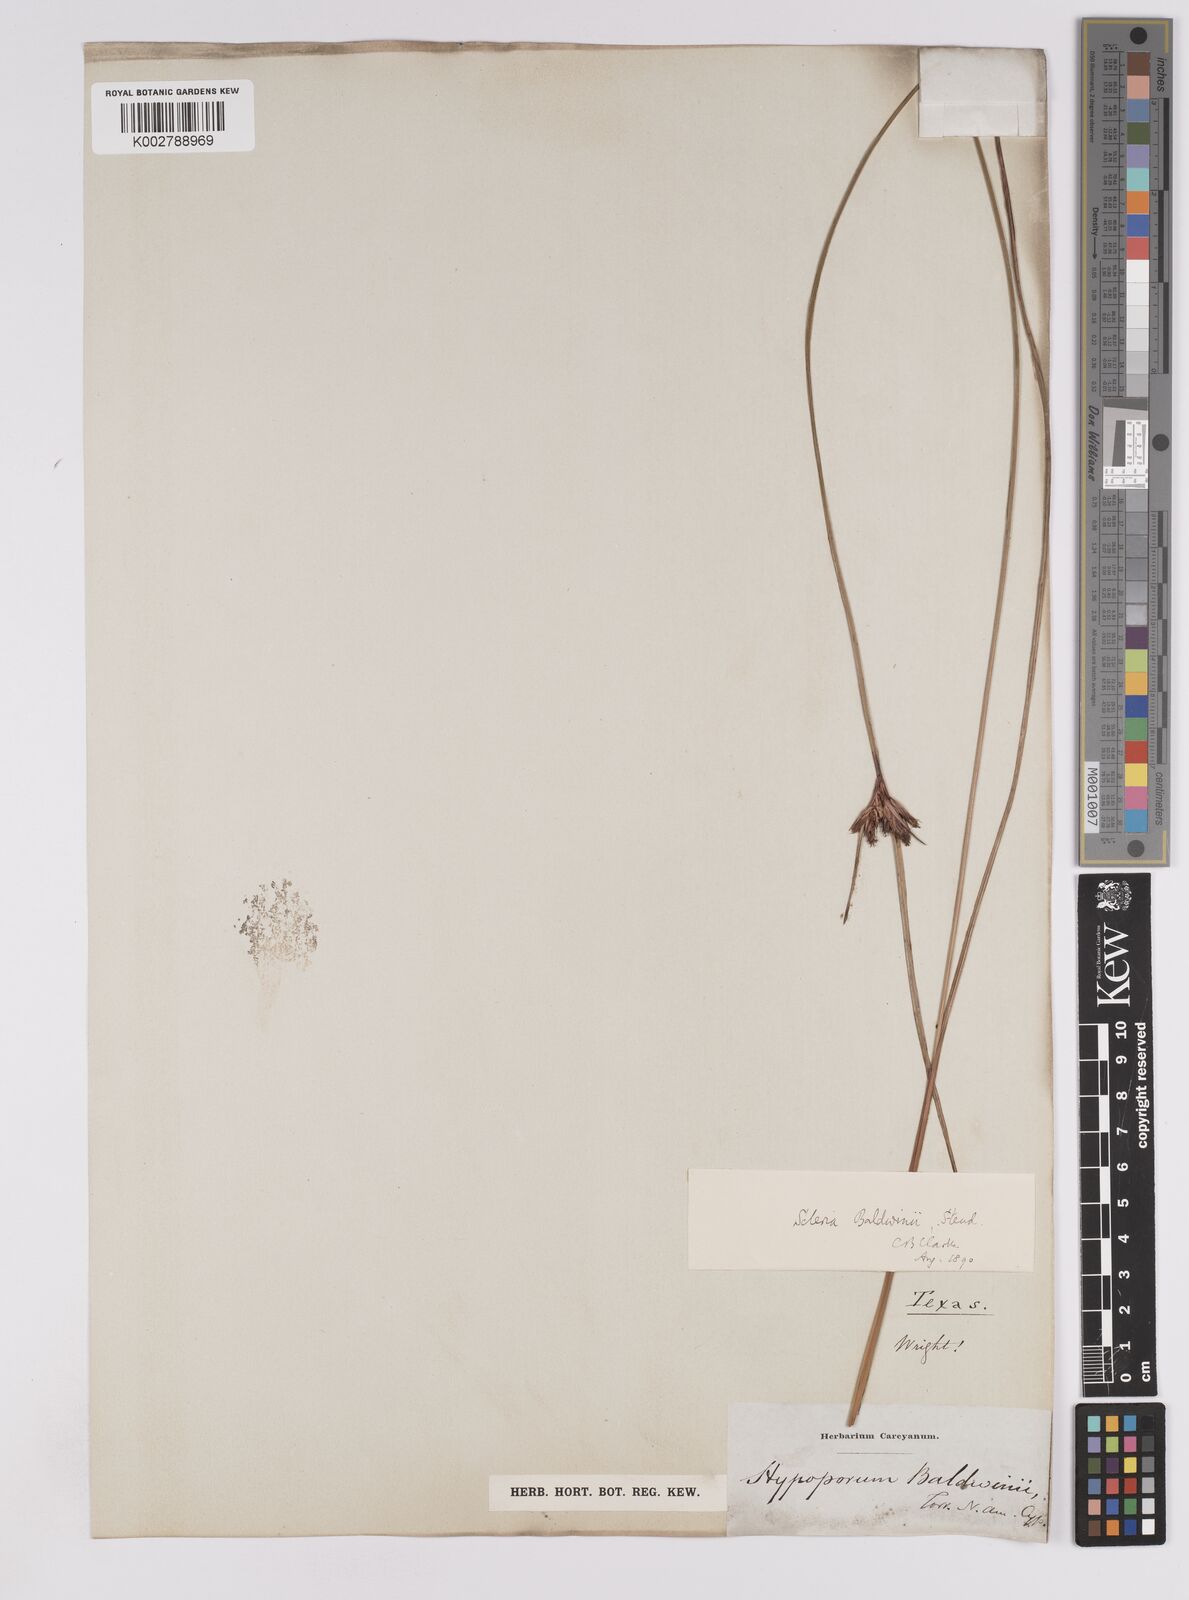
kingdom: Plantae
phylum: Tracheophyta
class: Liliopsida
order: Poales
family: Cyperaceae
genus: Scleria
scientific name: Scleria baldwinii
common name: Baldwin's nutrush
